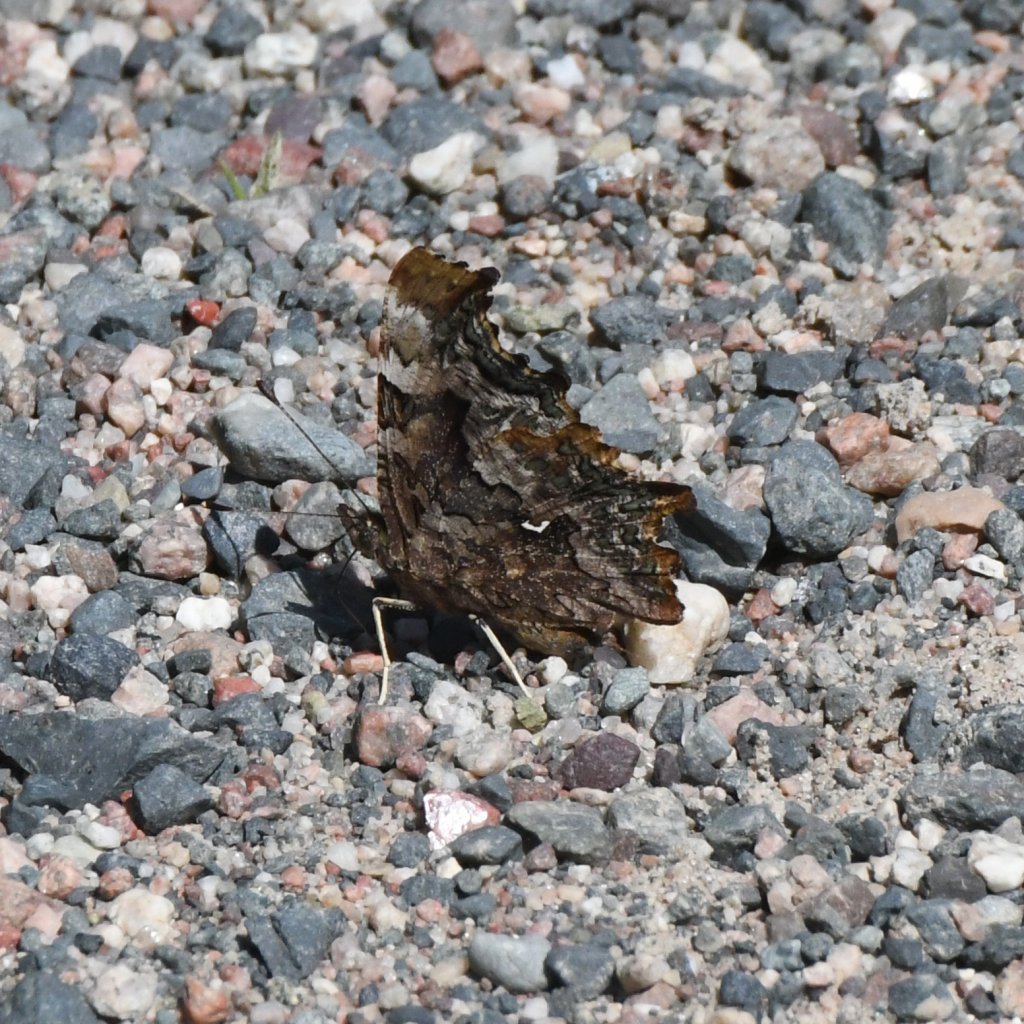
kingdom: Animalia
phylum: Arthropoda
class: Insecta
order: Lepidoptera
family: Nymphalidae
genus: Polygonia
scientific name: Polygonia faunus
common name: Green Comma
